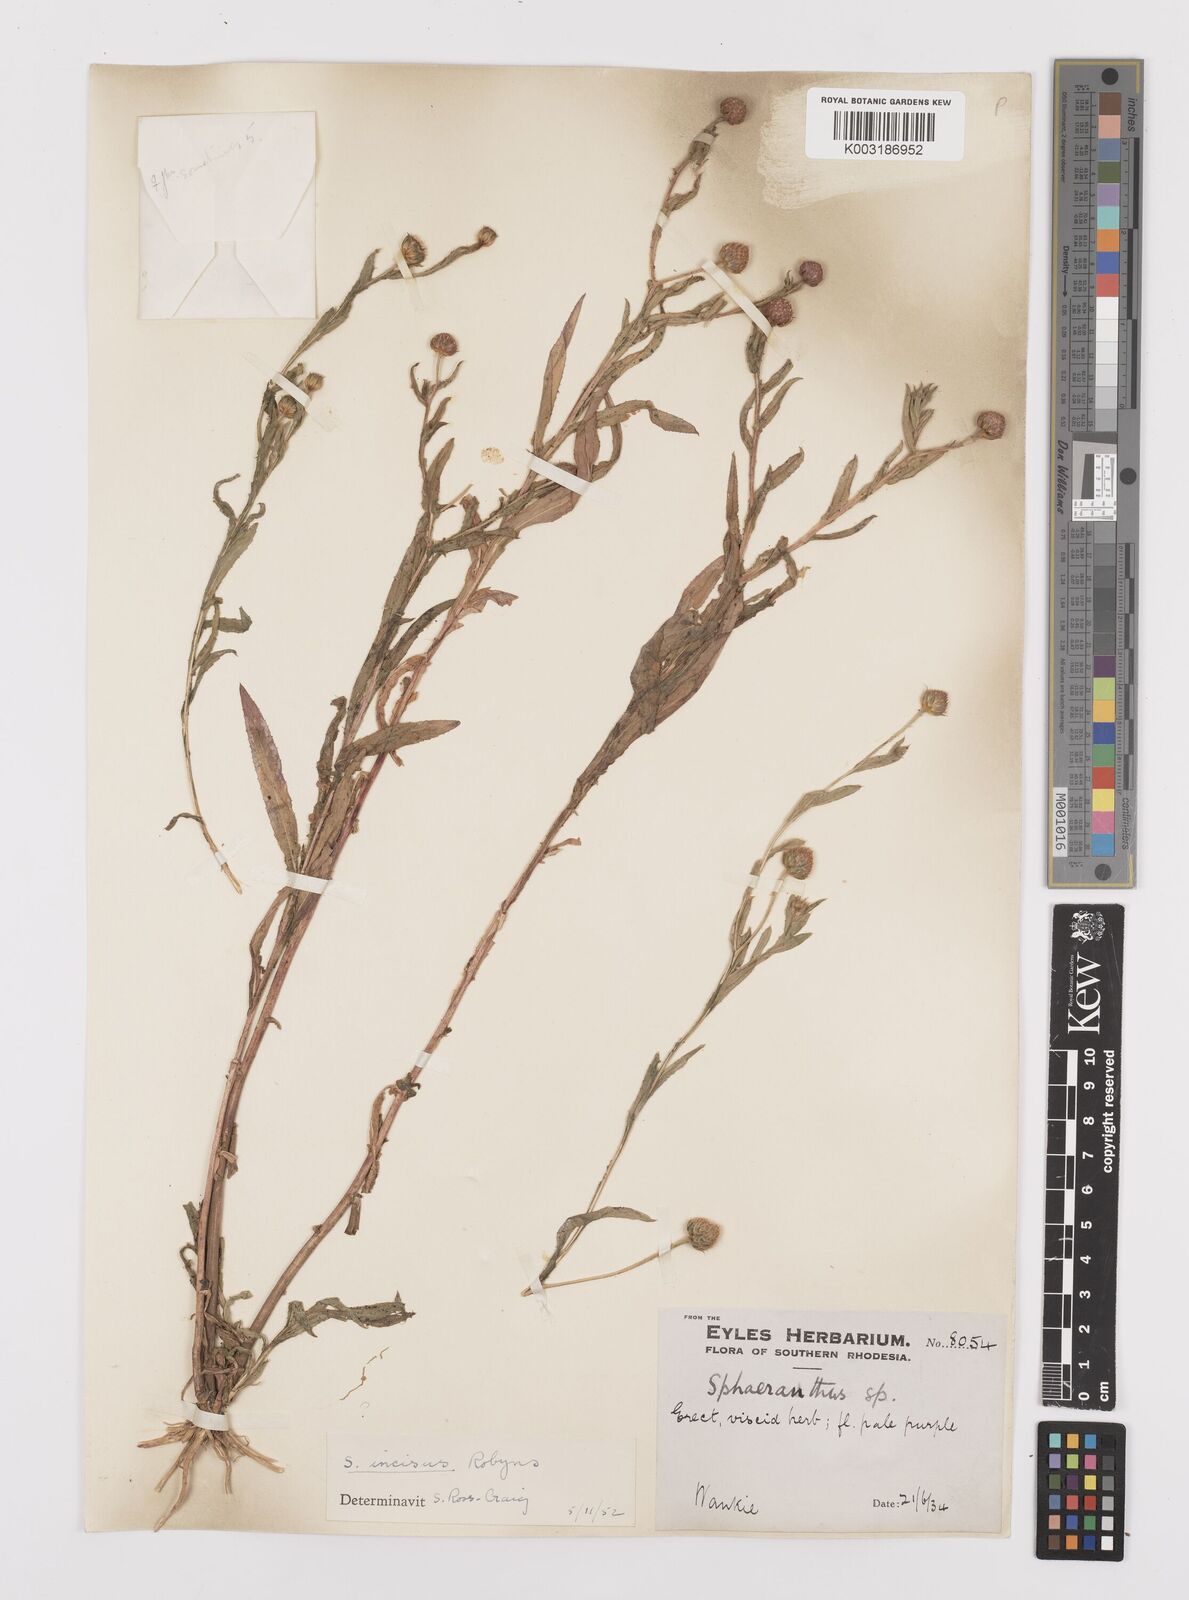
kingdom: Plantae
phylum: Tracheophyta
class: Magnoliopsida
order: Asterales
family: Asteraceae
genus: Sphaeranthus
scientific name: Sphaeranthus peduncularis
